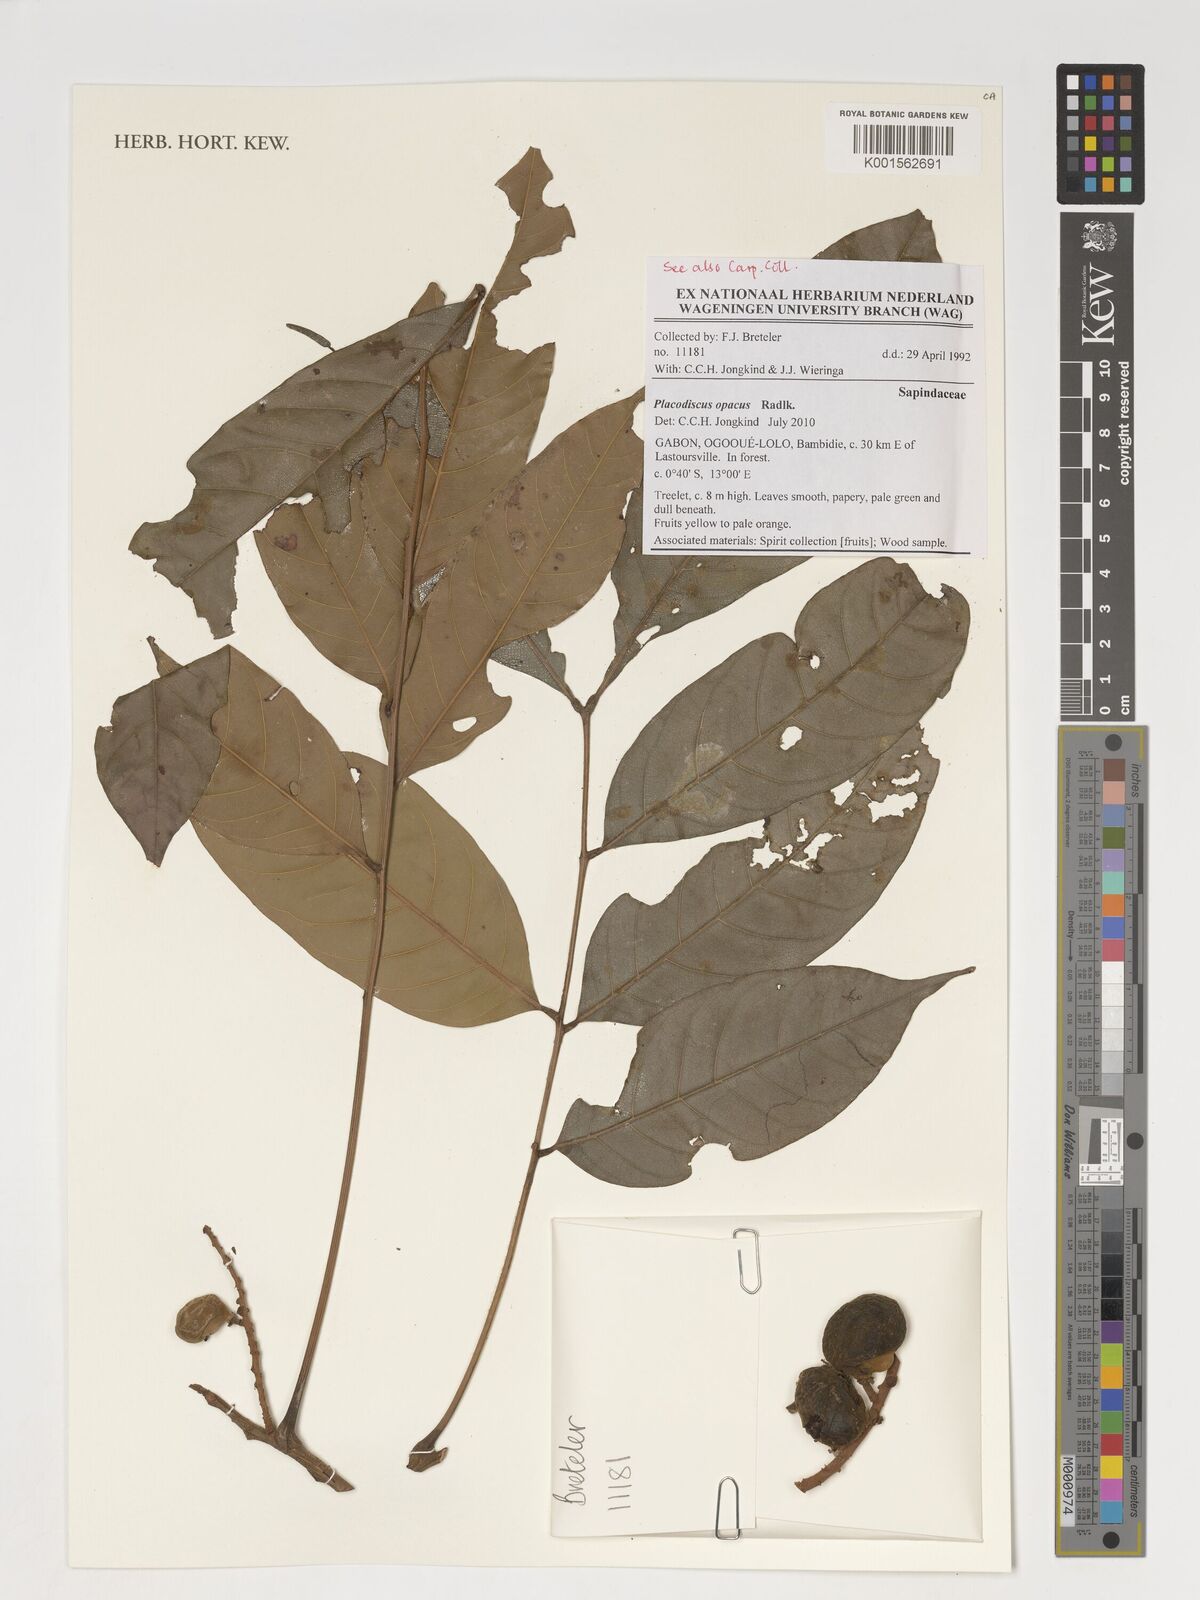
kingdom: Plantae
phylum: Tracheophyta
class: Magnoliopsida
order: Sapindales
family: Sapindaceae
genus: Placodiscus
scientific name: Placodiscus opacus
